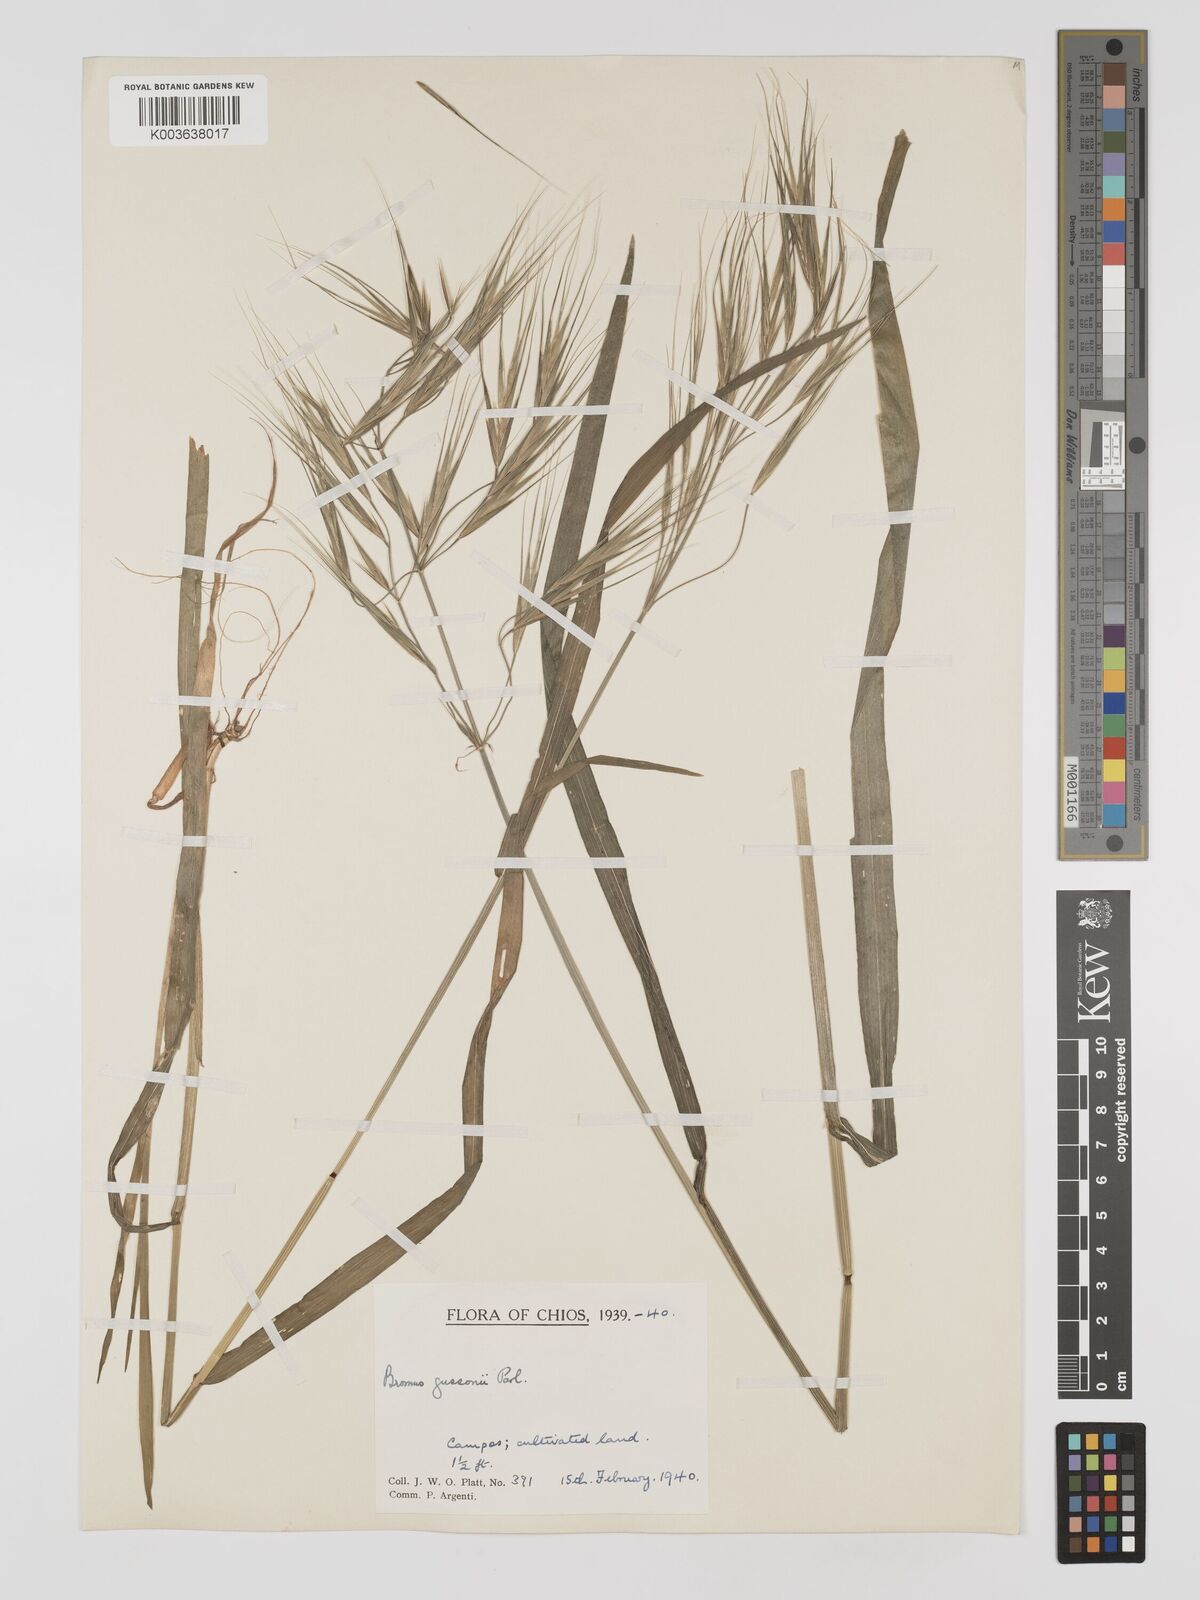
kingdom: Plantae
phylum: Tracheophyta
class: Liliopsida
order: Poales
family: Poaceae
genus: Bromus
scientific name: Bromus
